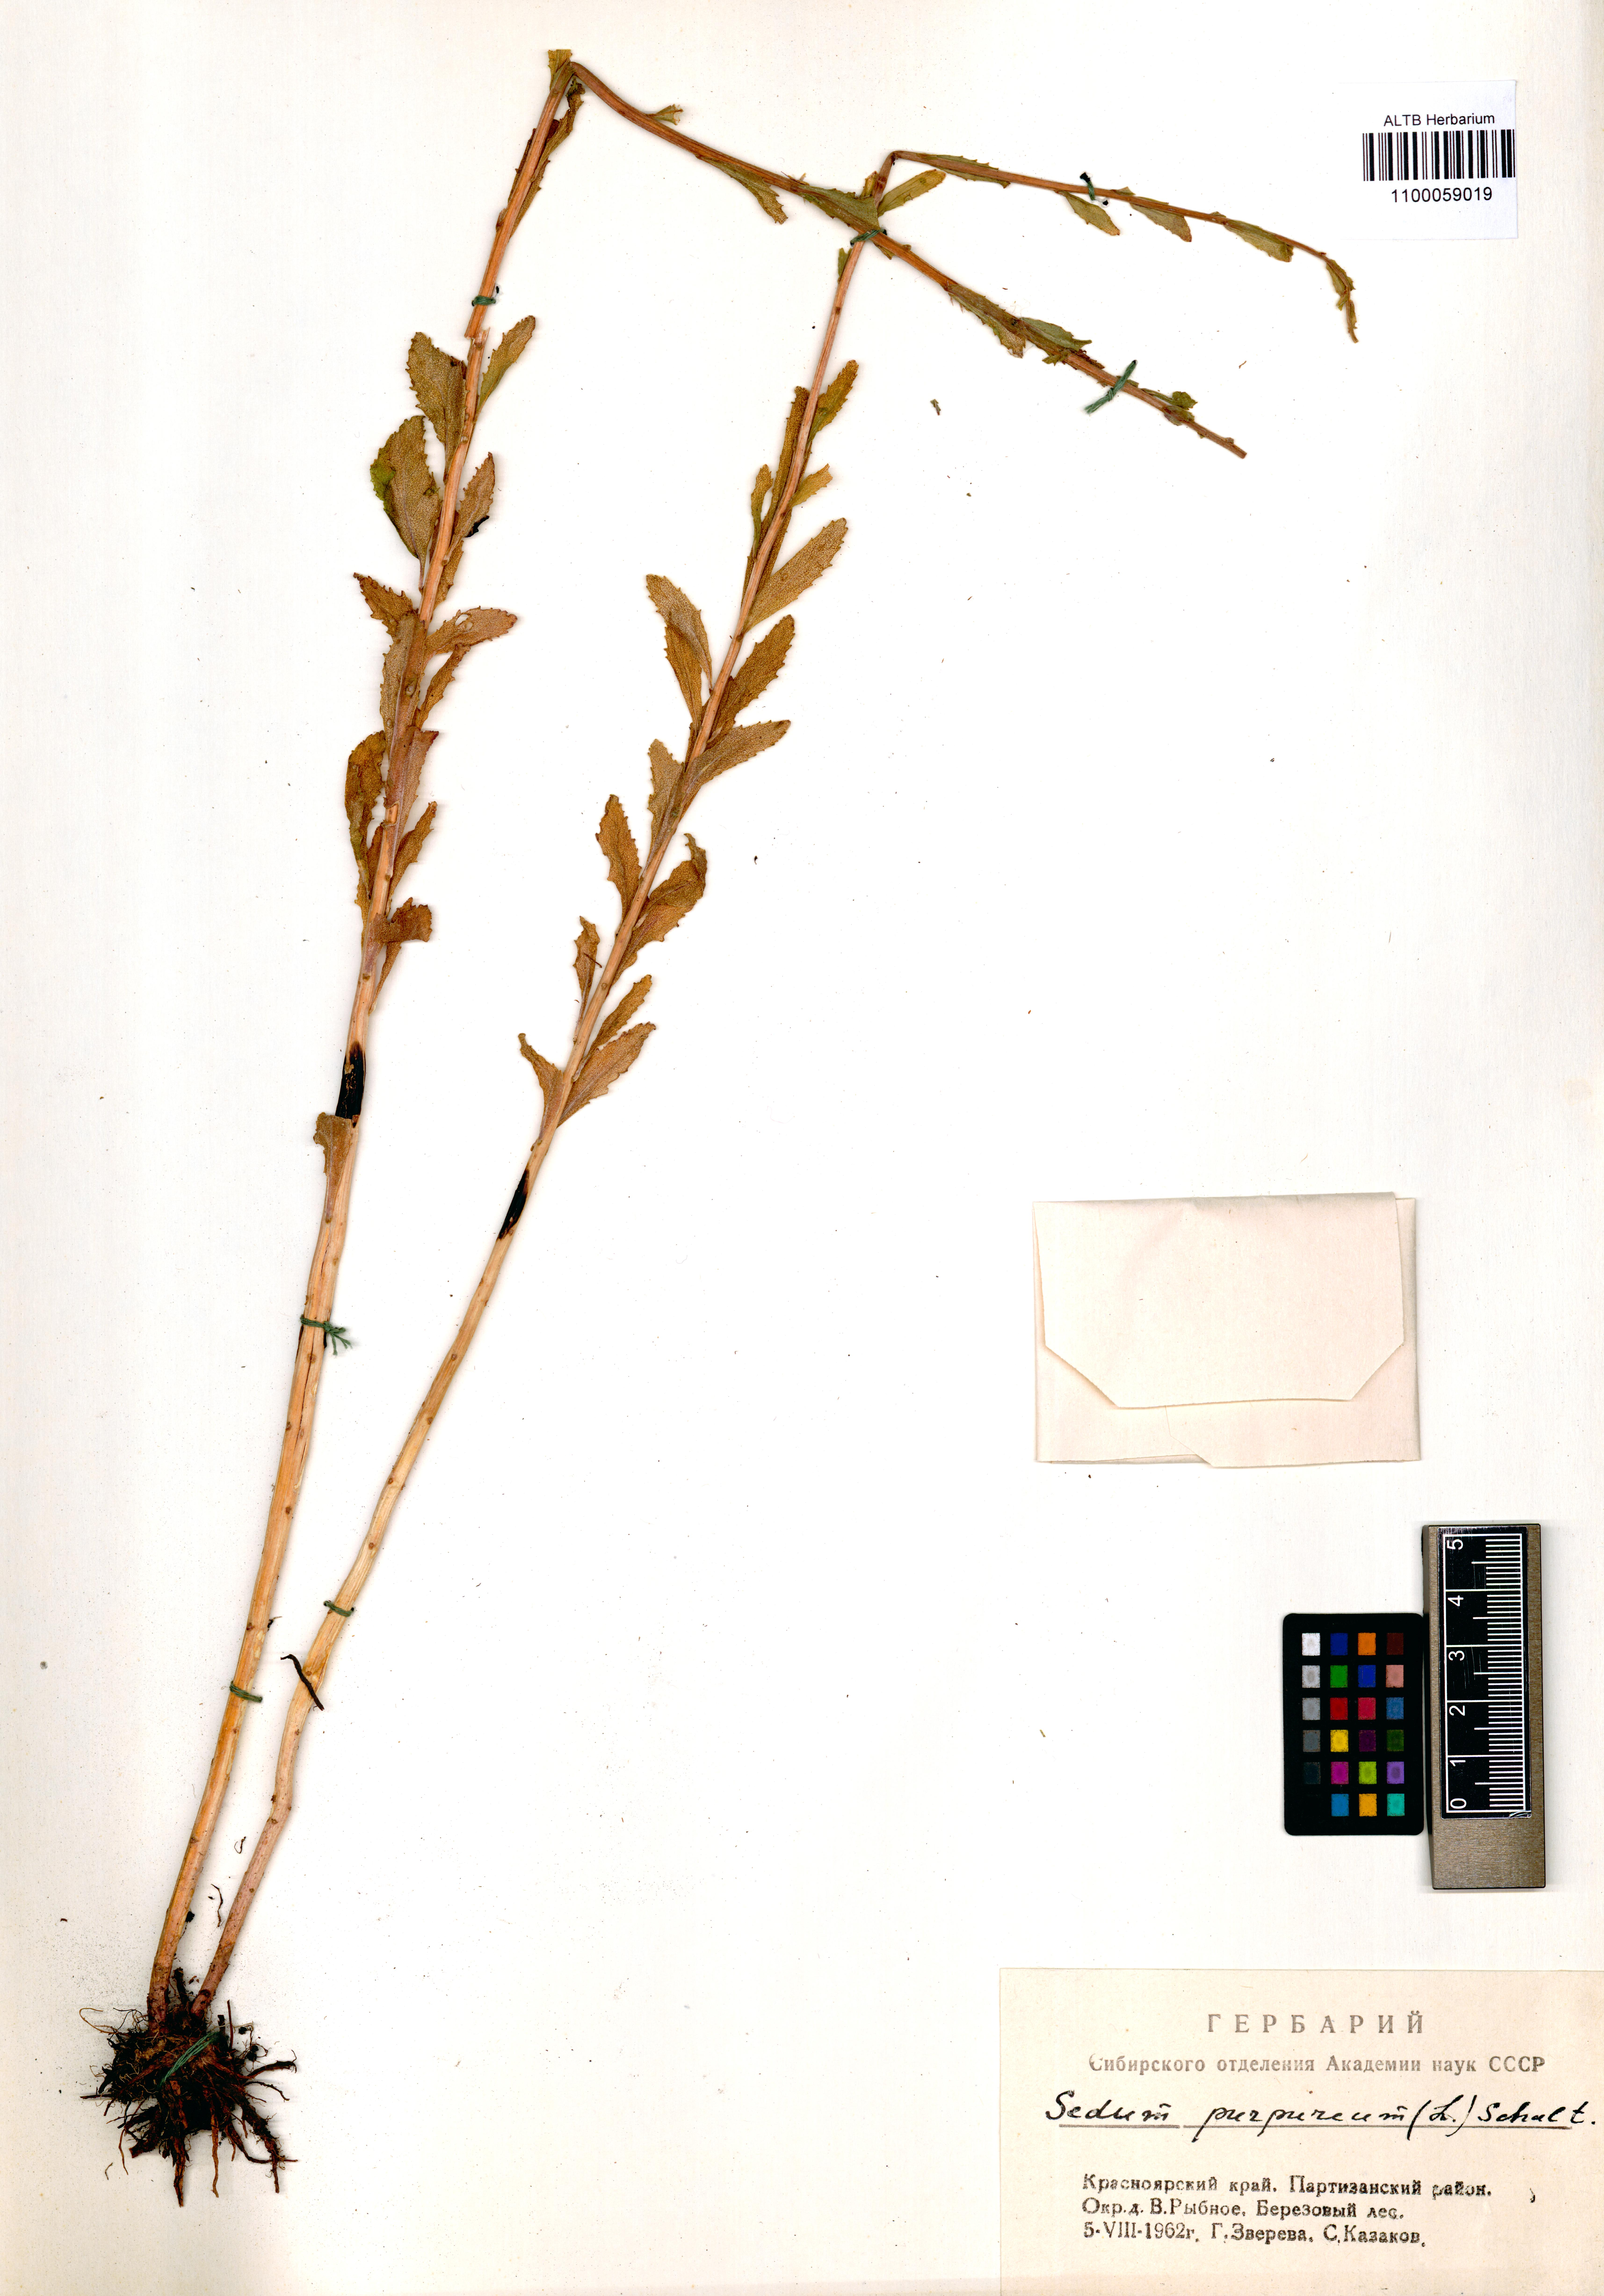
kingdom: Plantae
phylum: Tracheophyta
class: Magnoliopsida
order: Saxifragales
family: Crassulaceae
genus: Hylotelephium
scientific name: Hylotelephium telephium
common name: Live-forever
